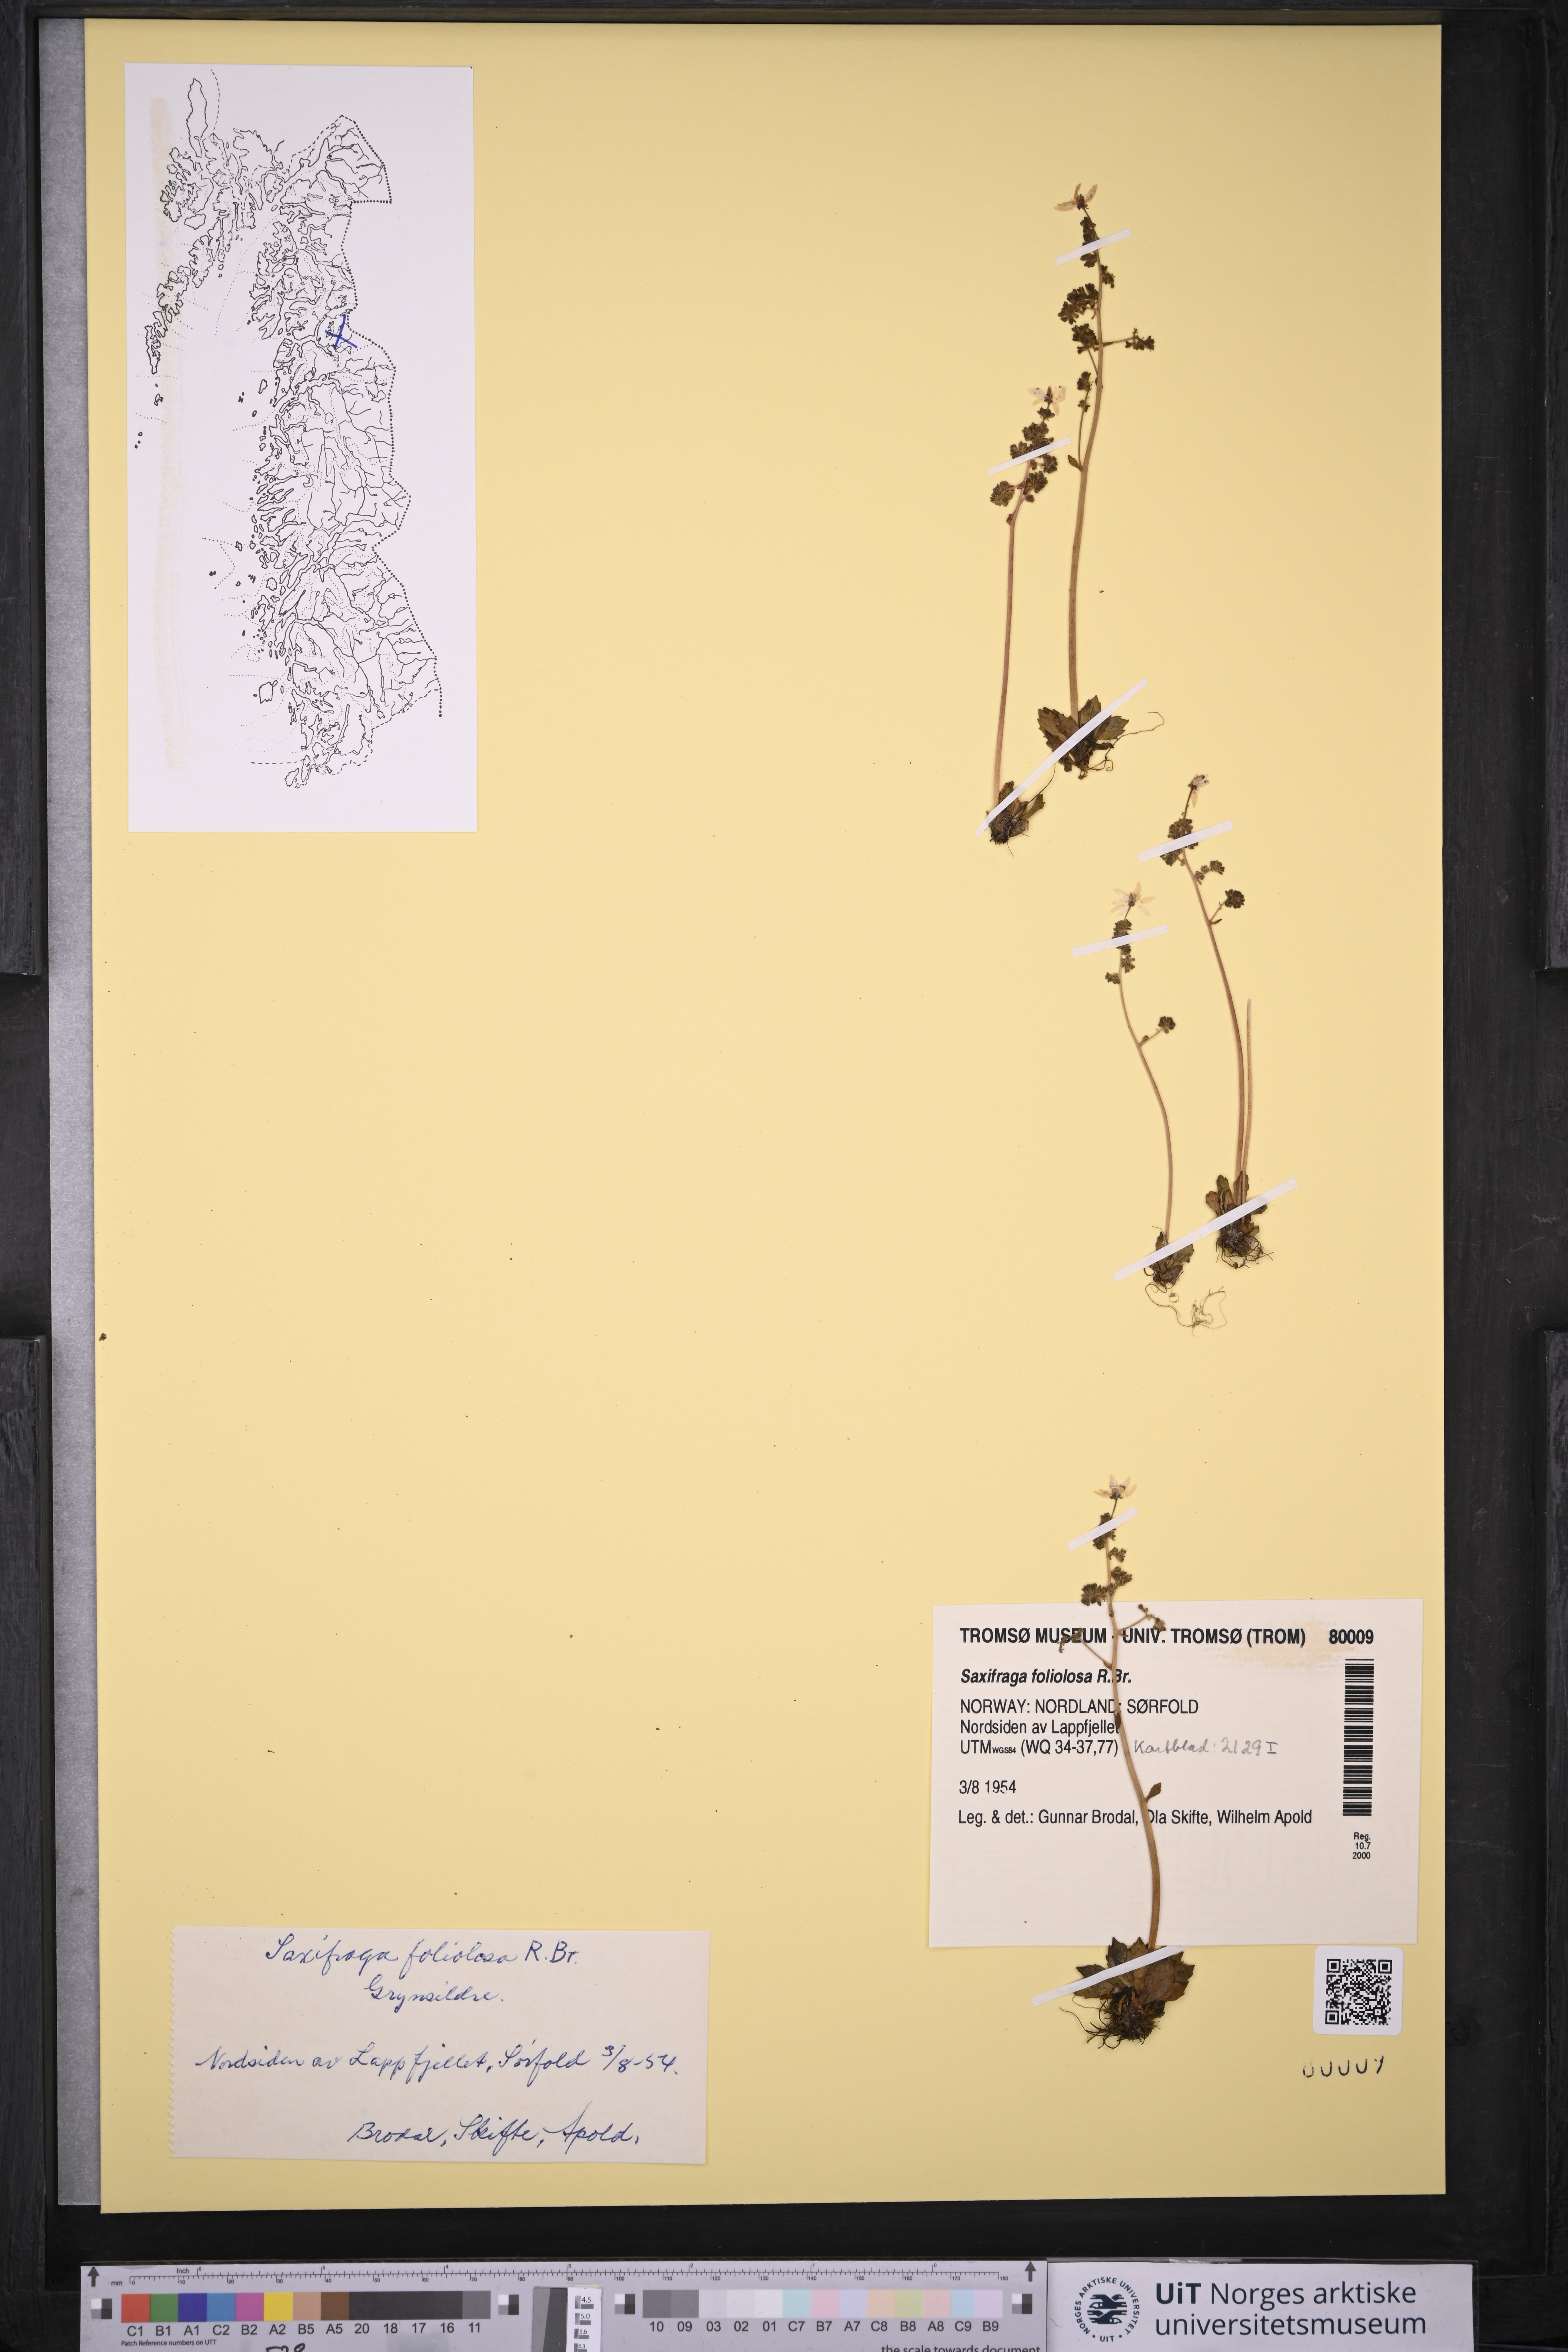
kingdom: Plantae
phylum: Tracheophyta
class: Magnoliopsida
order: Saxifragales
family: Saxifragaceae
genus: Micranthes
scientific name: Micranthes foliolosa
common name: Leafystem saxifrage
